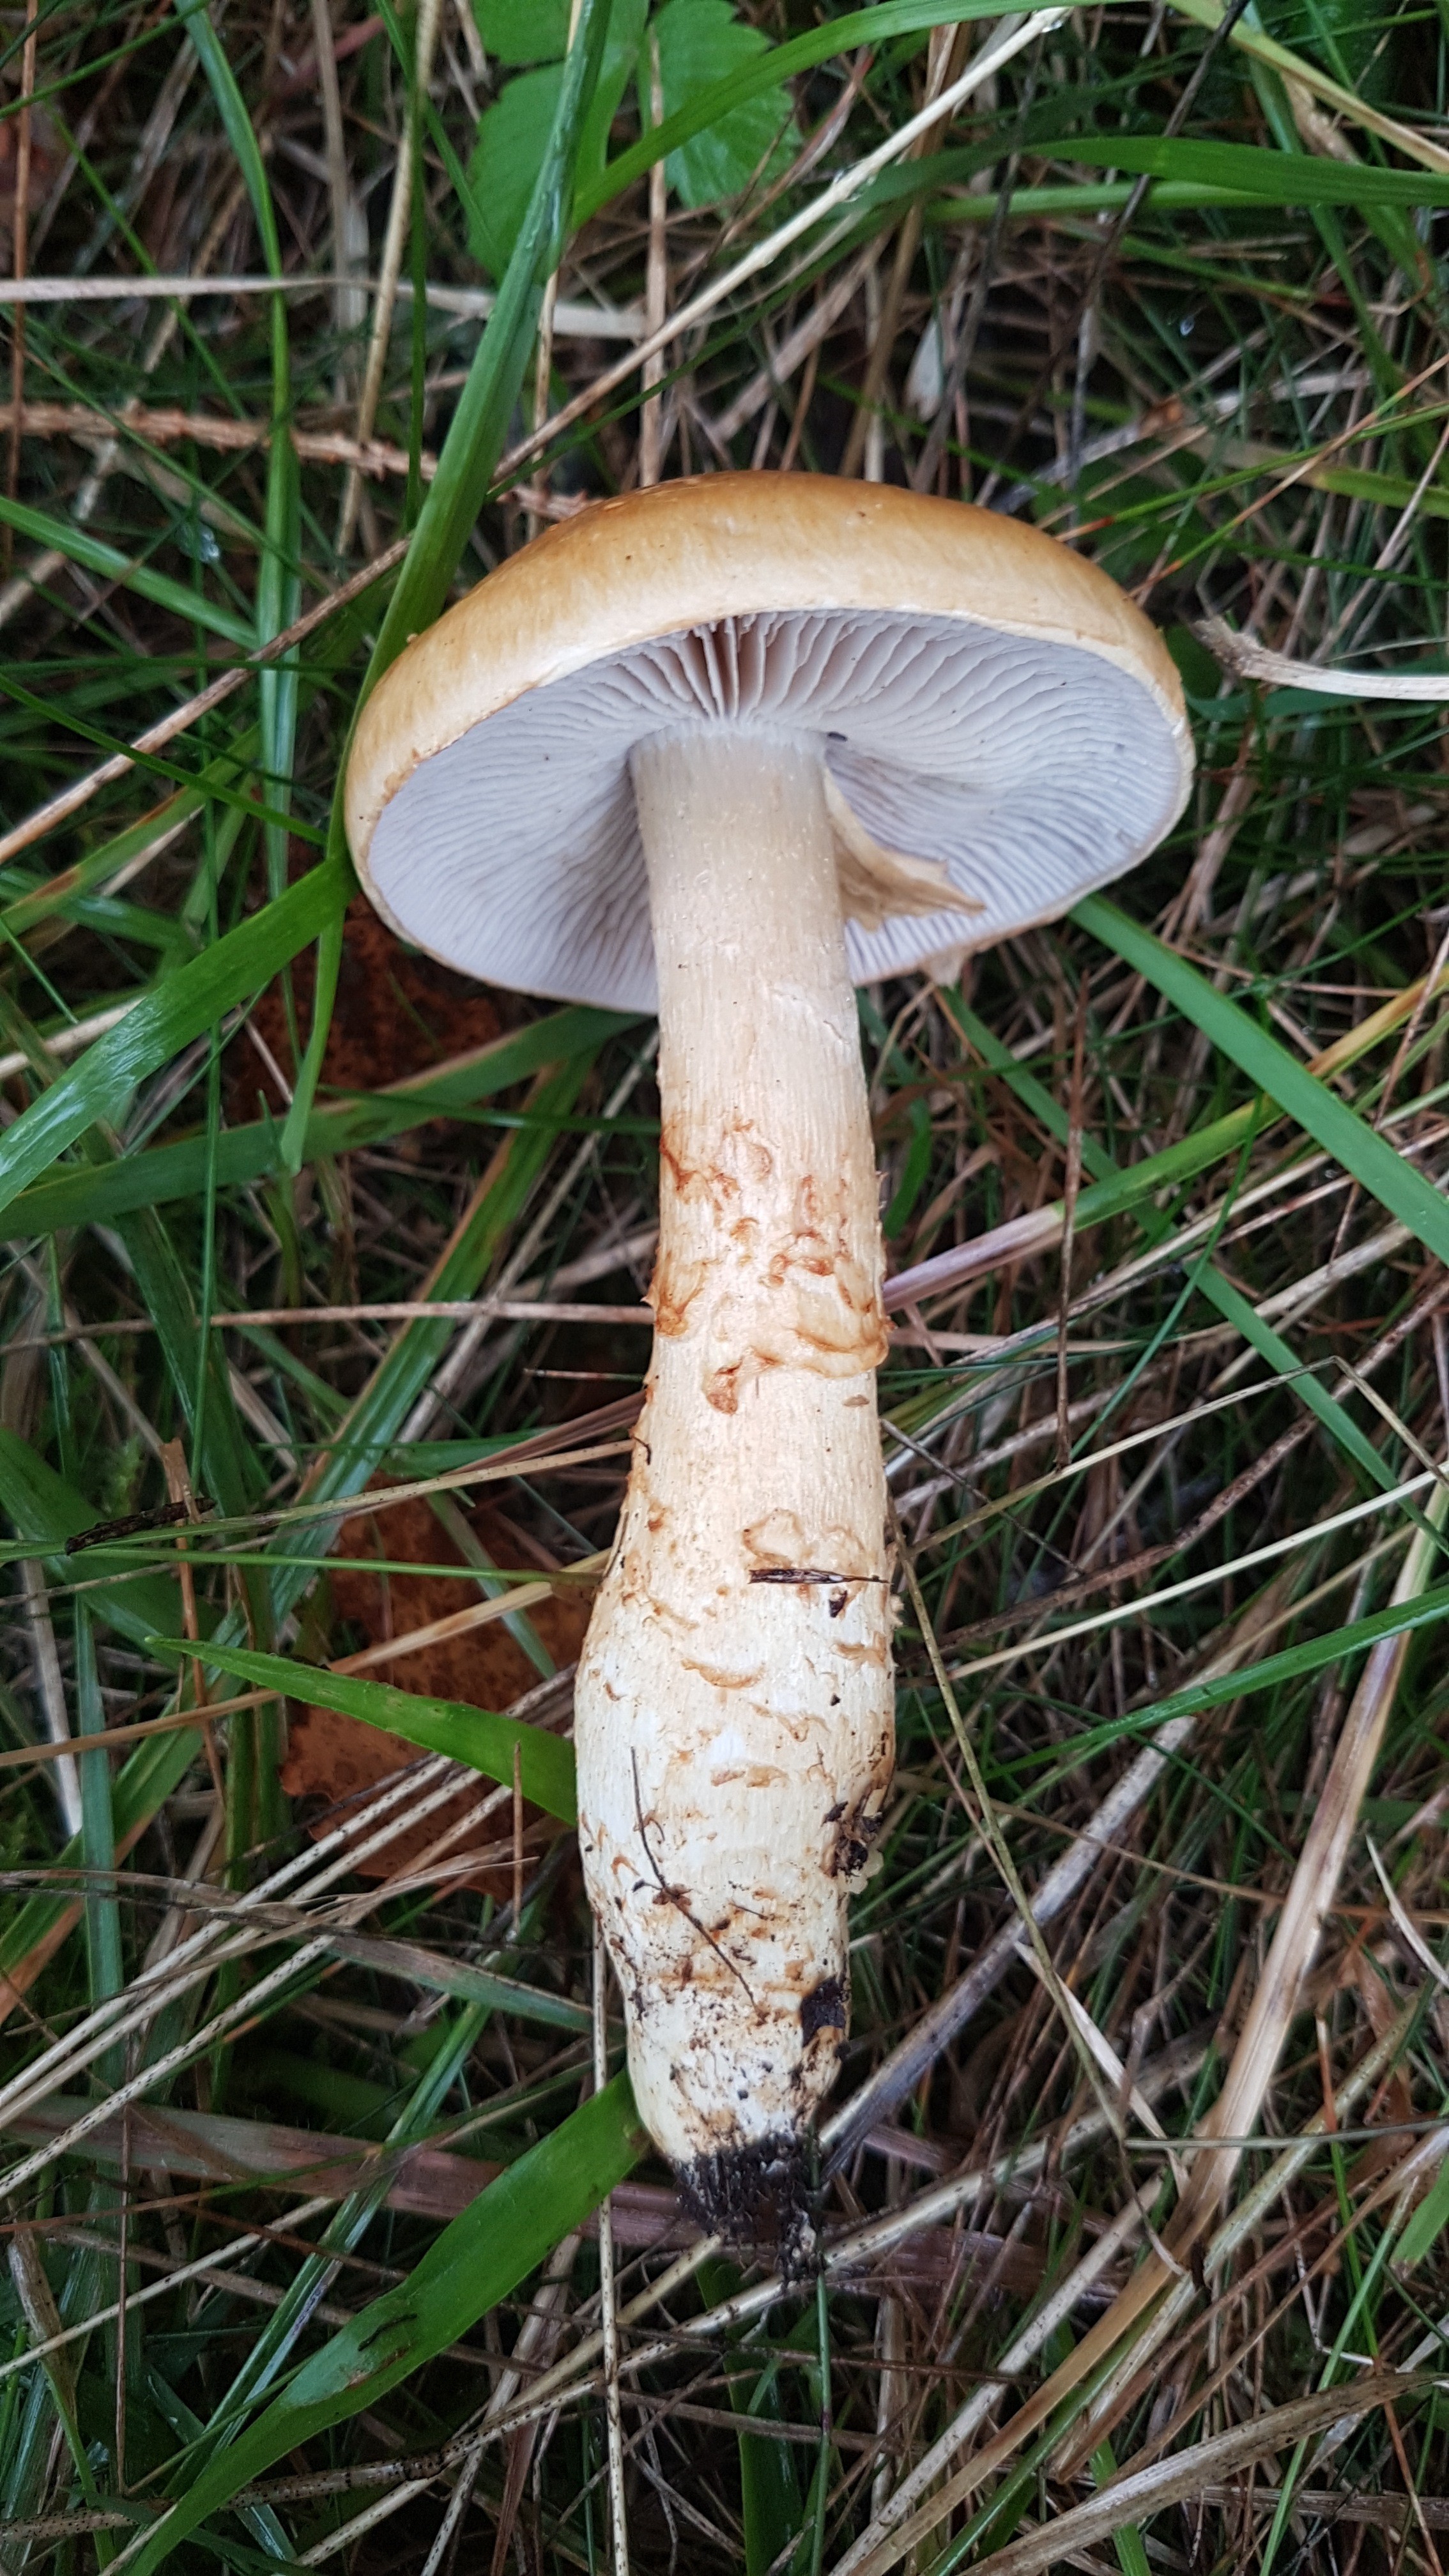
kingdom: Fungi
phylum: Basidiomycota
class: Agaricomycetes
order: Agaricales
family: Cortinariaceae
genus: Phlegmacium
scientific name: Phlegmacium triumphans
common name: gulbæltet slørhat
